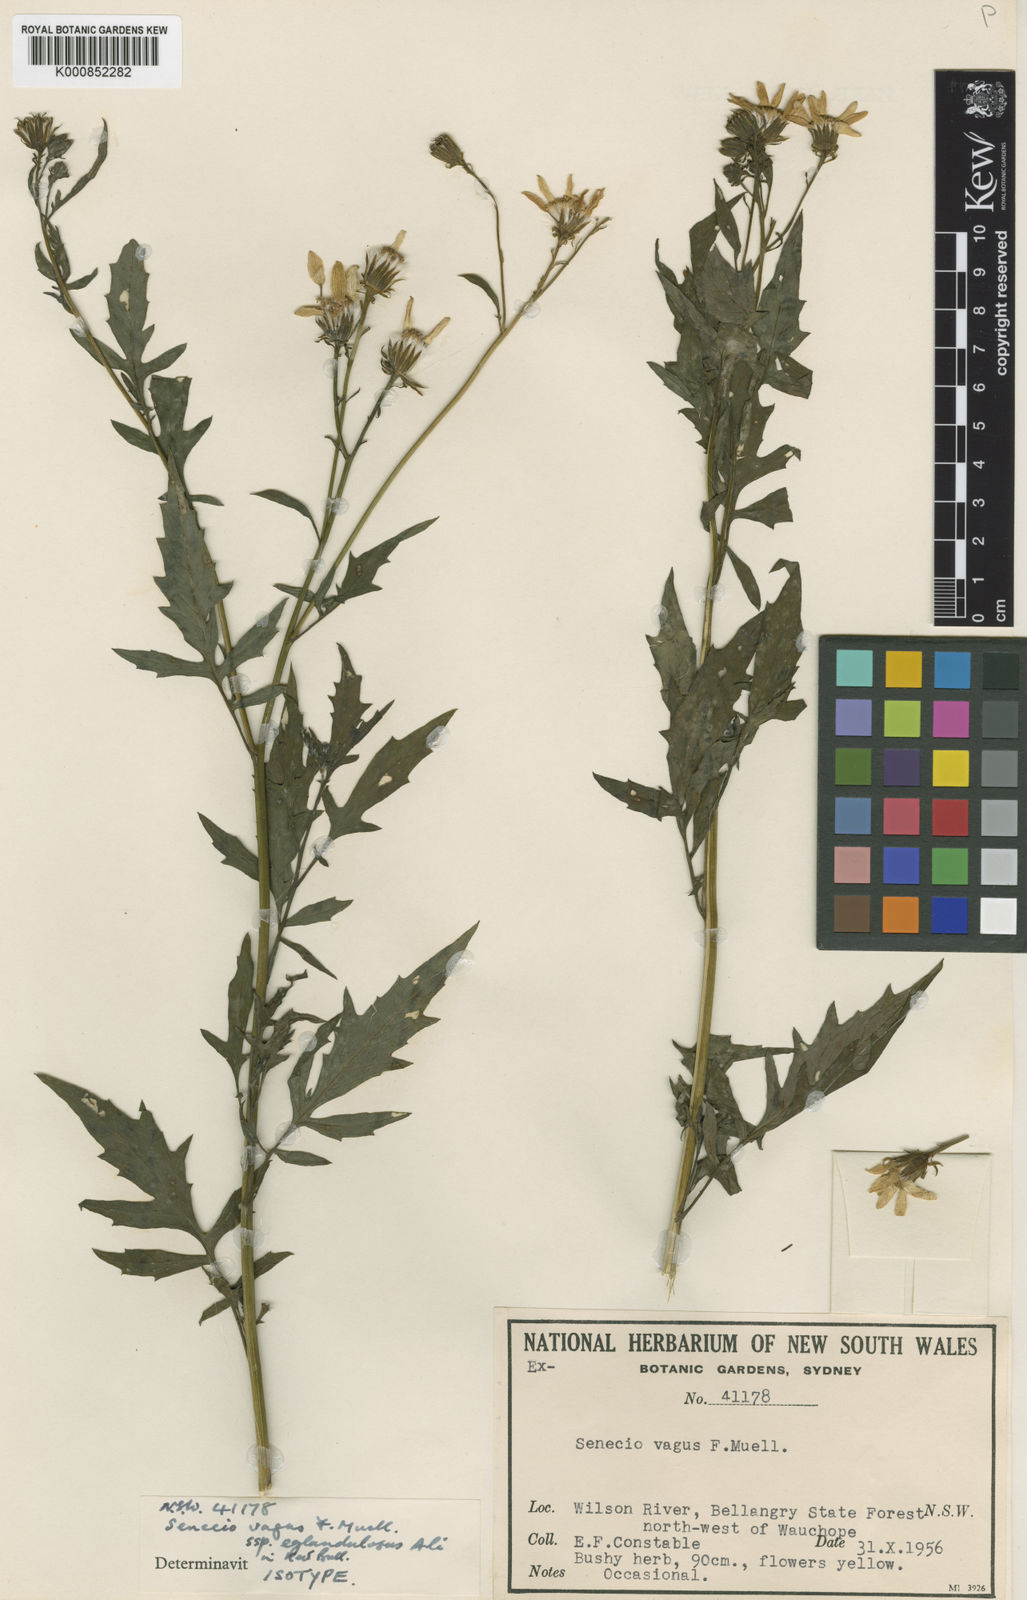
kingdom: Plantae
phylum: Tracheophyta
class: Magnoliopsida
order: Asterales
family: Asteraceae
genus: Senecio
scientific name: Senecio vagus
